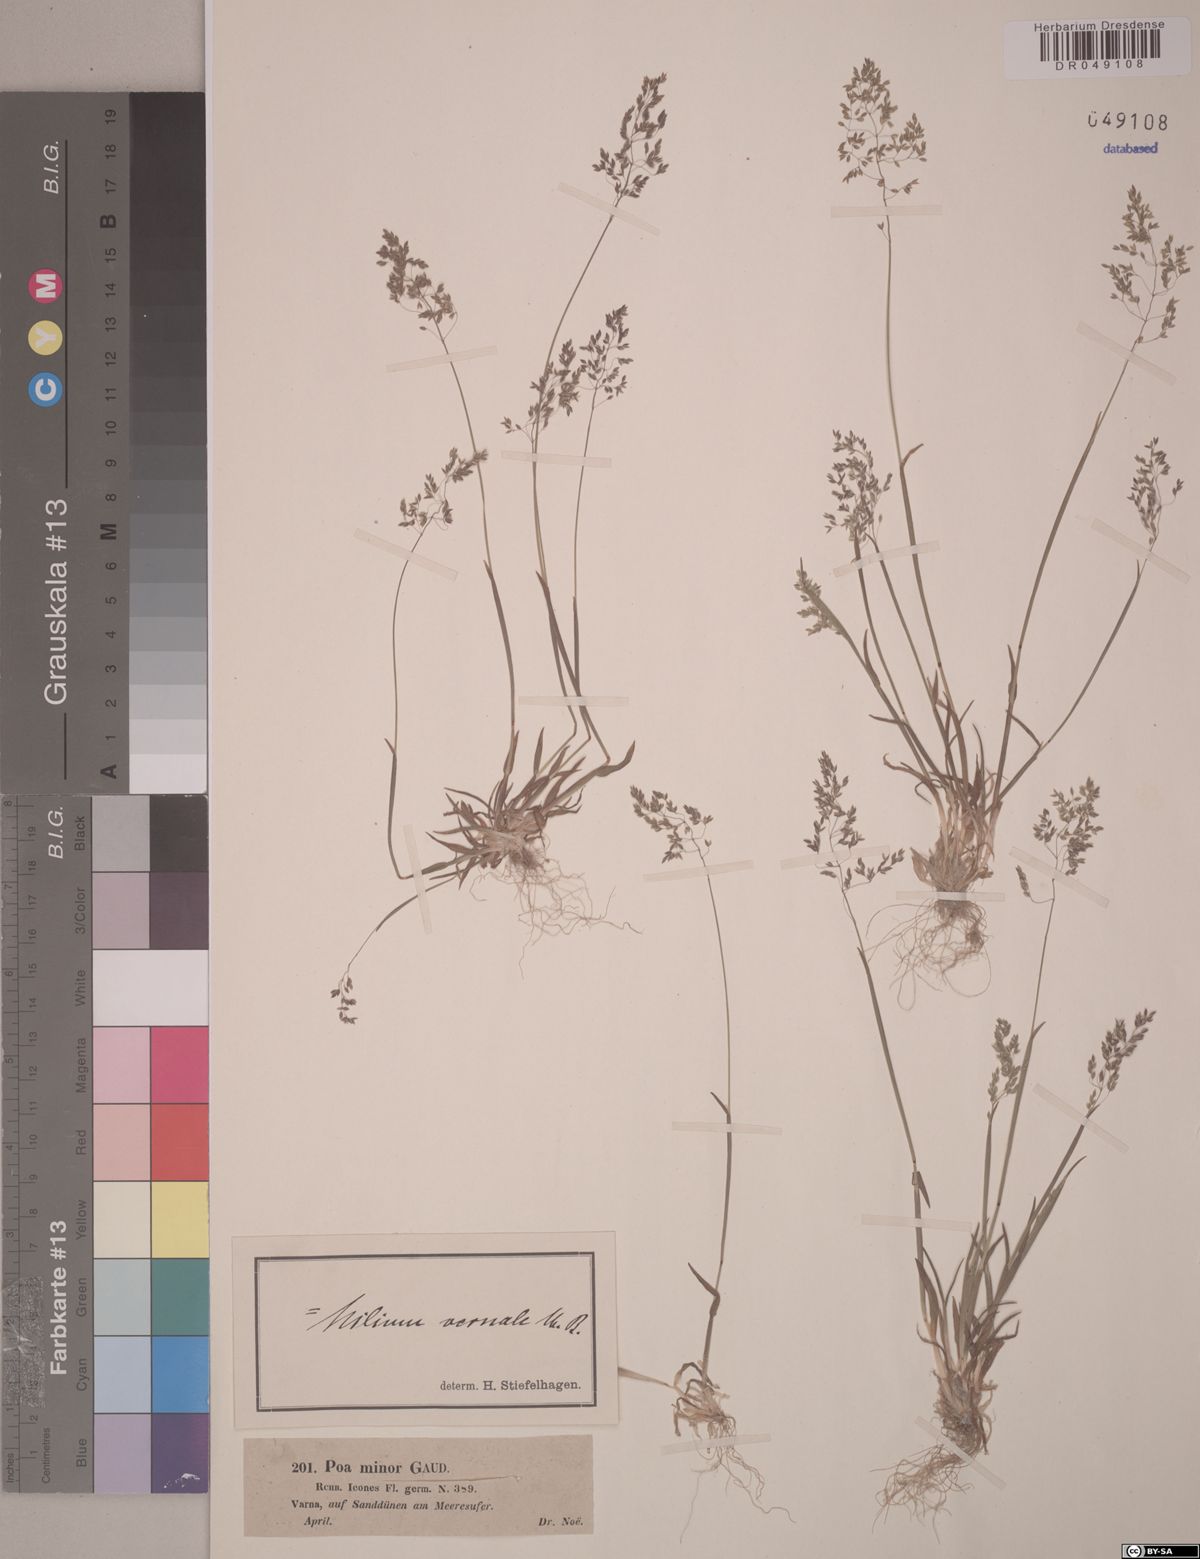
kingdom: Plantae
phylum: Tracheophyta
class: Liliopsida
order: Poales
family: Poaceae
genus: Milium
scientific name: Milium vernale
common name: Early millet
